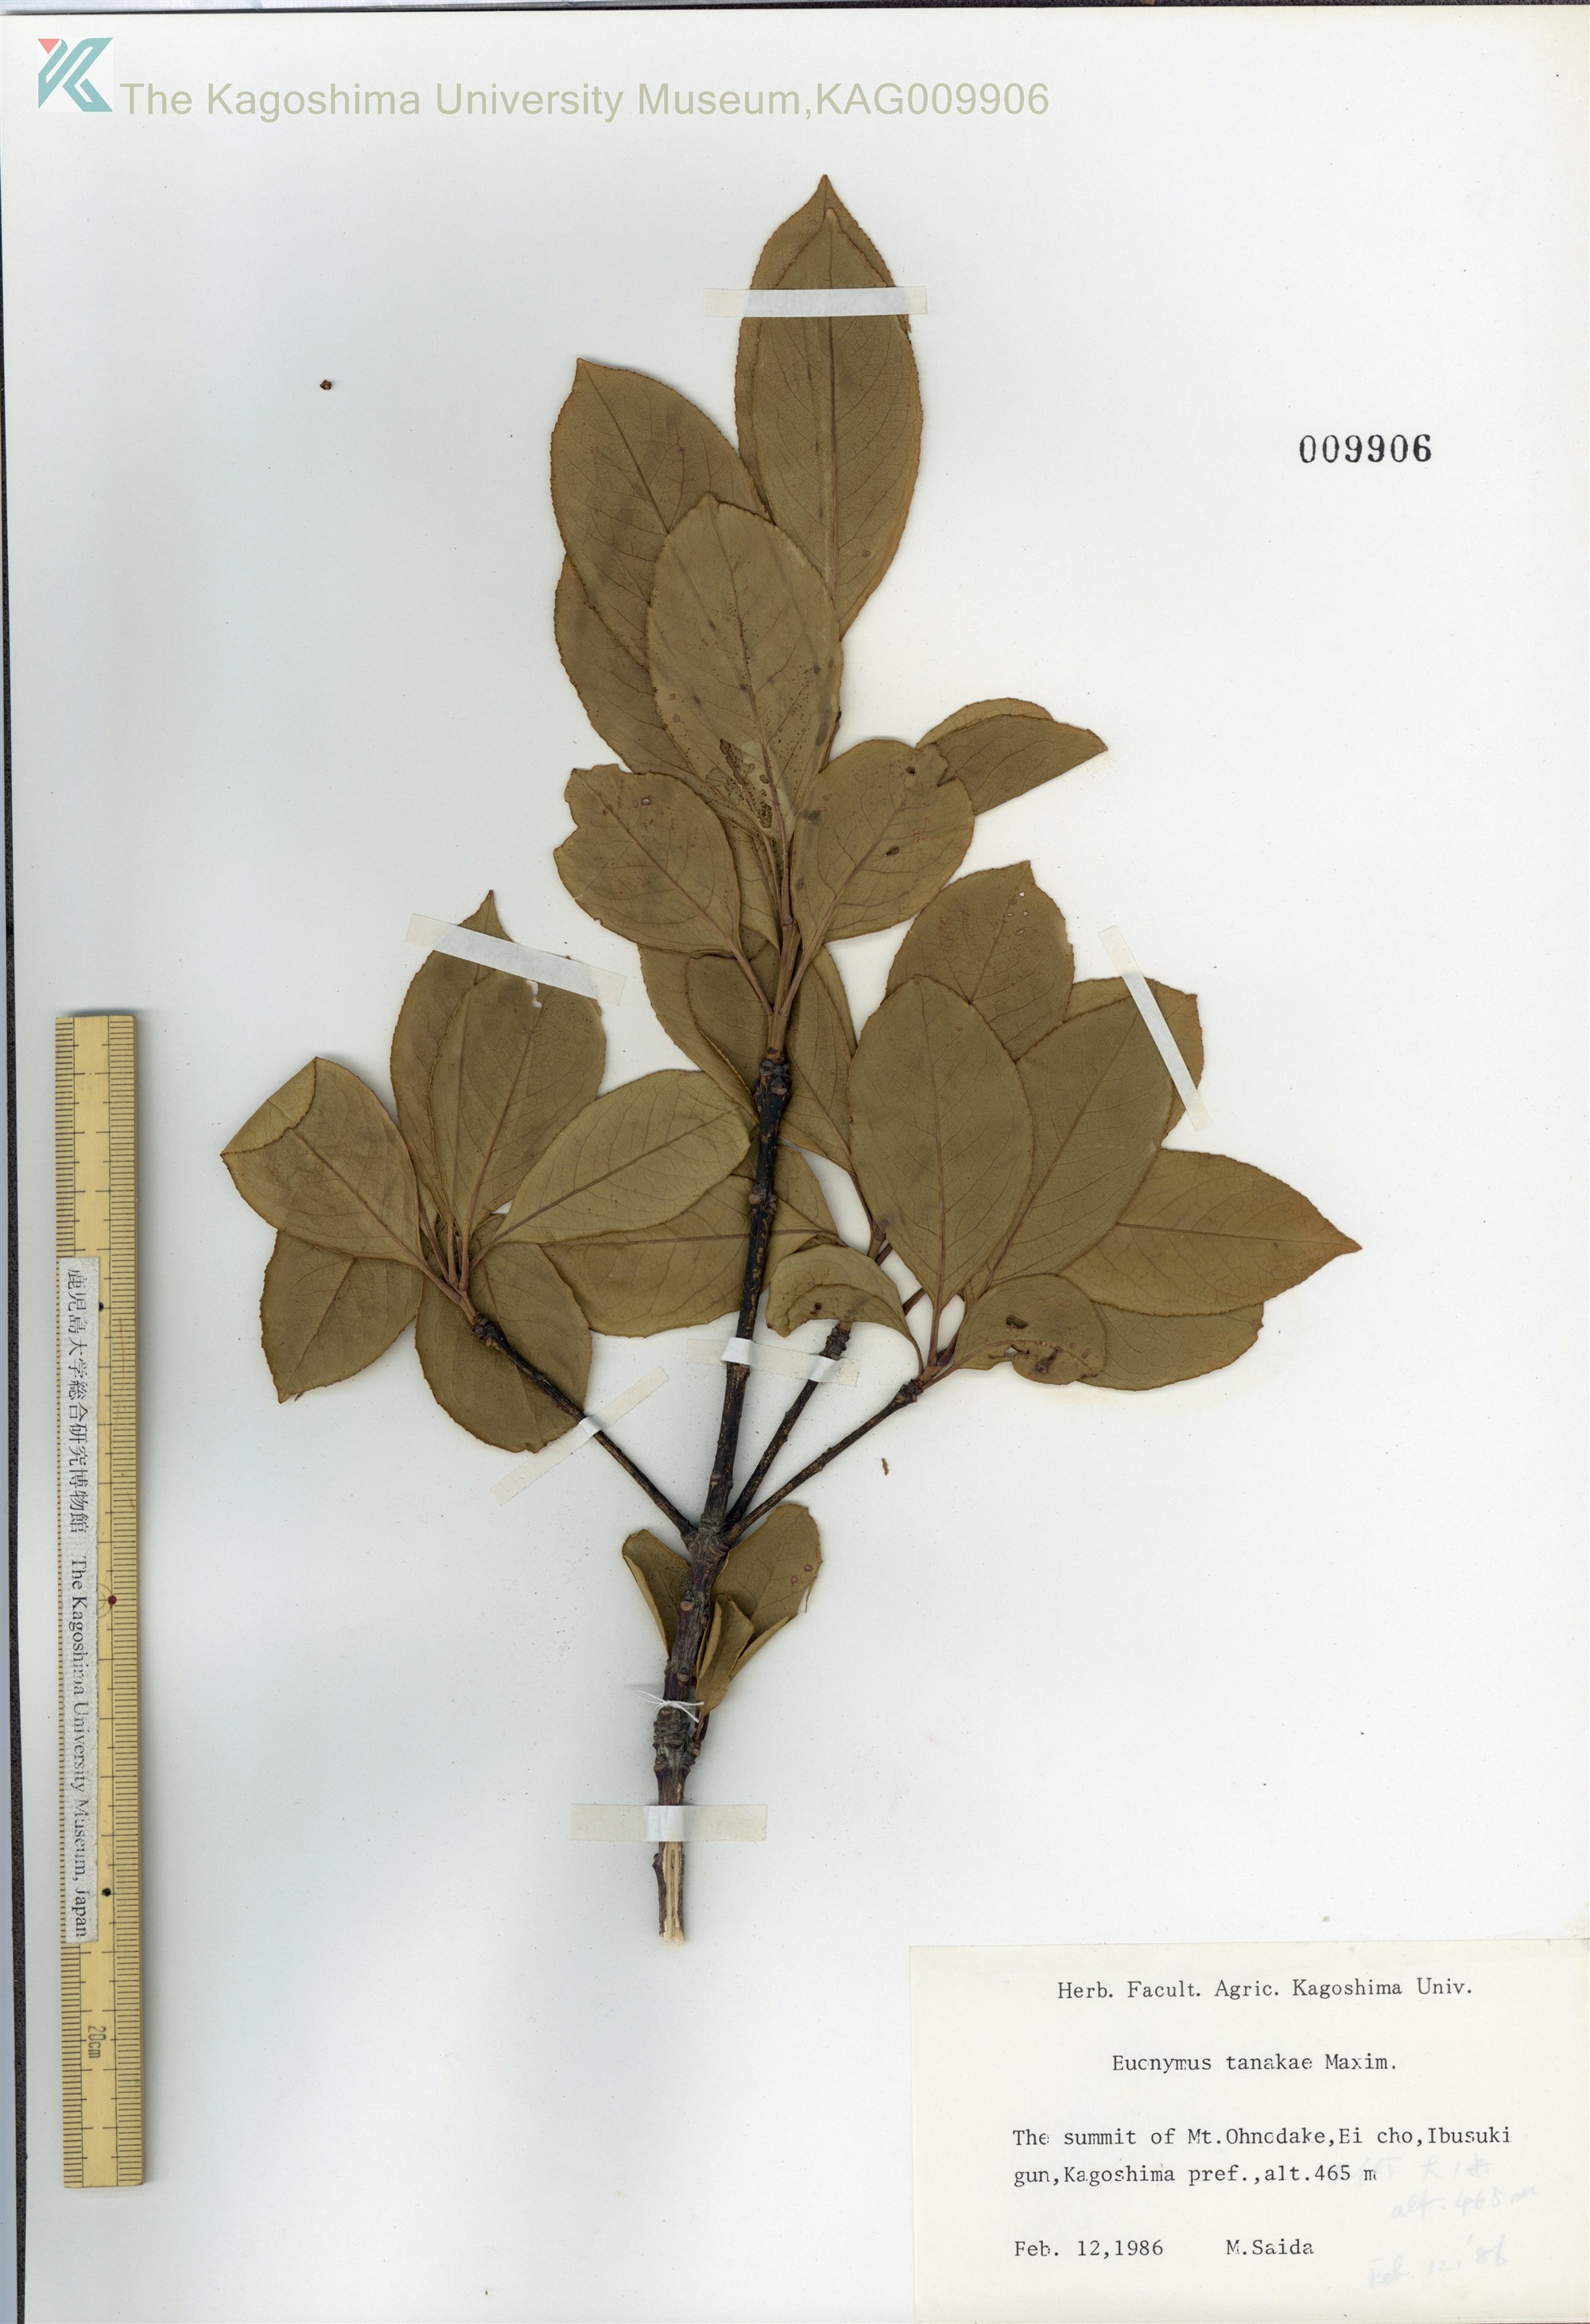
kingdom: Plantae
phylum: Tracheophyta
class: Magnoliopsida
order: Celastrales
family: Celastraceae
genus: Euonymus
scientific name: Euonymus carnosus
